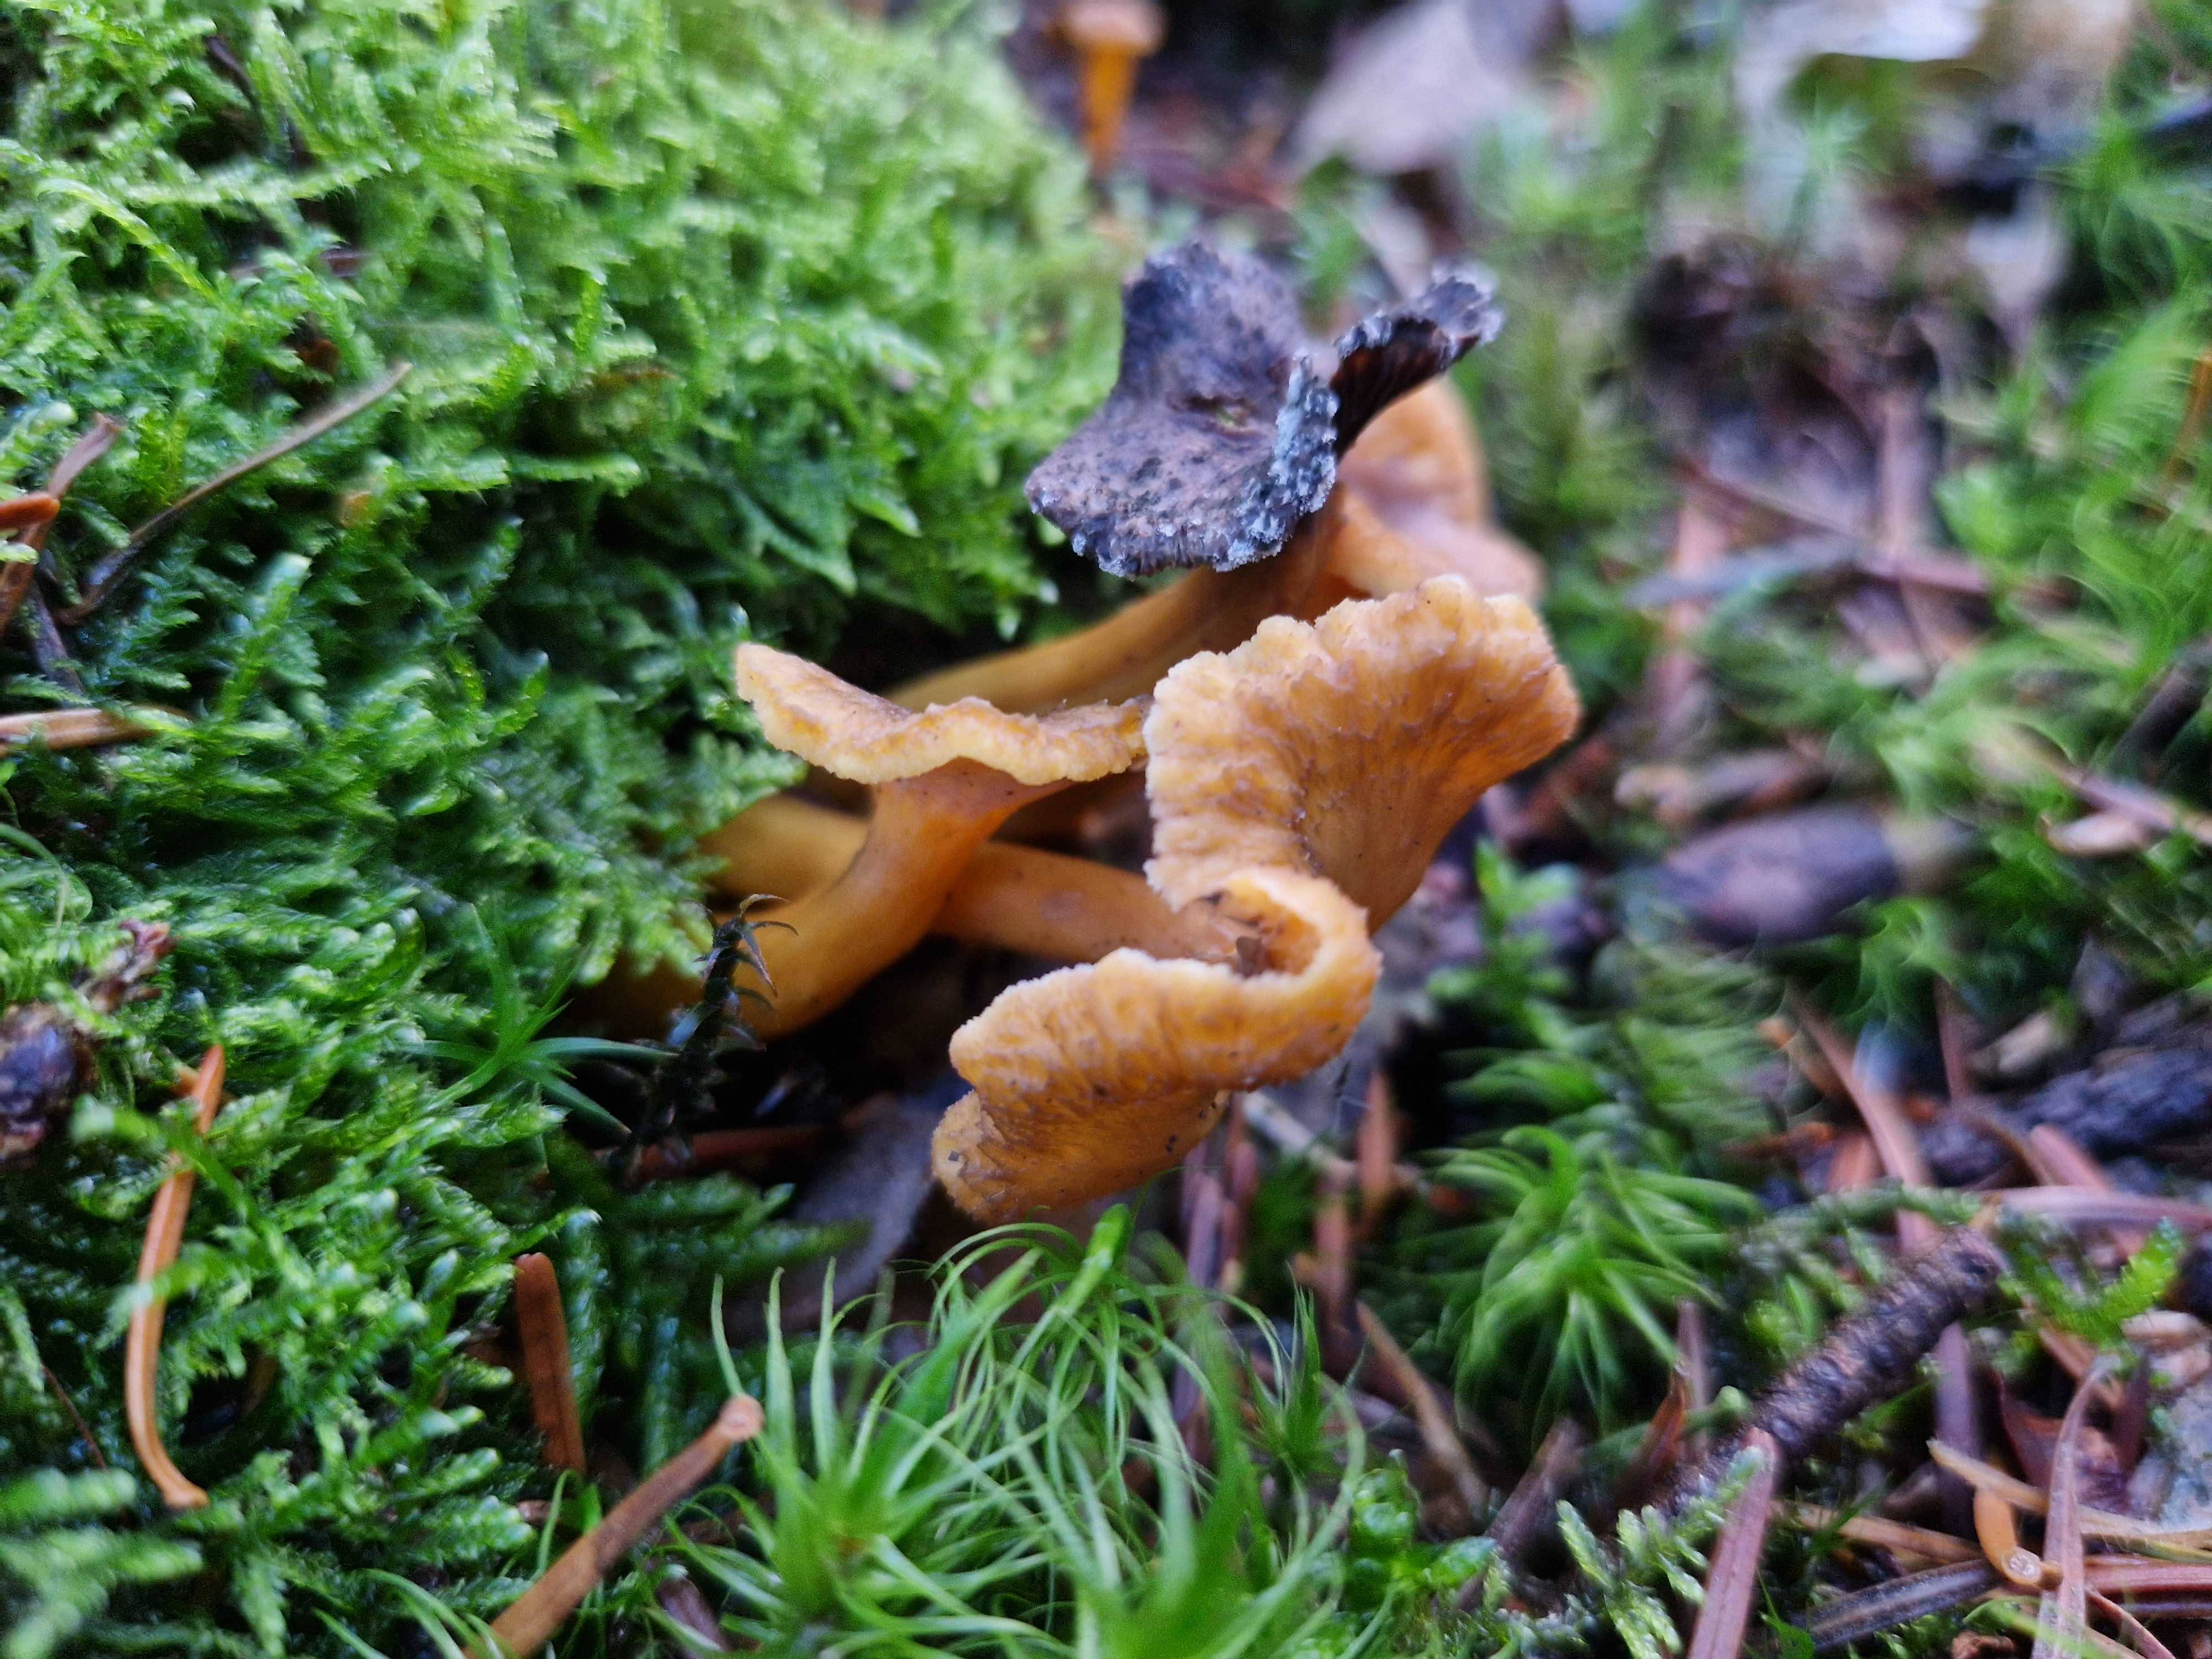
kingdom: Fungi
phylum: Basidiomycota
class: Agaricomycetes
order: Cantharellales
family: Hydnaceae
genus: Craterellus
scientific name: Craterellus tubaeformis
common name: tragt-kantarel
